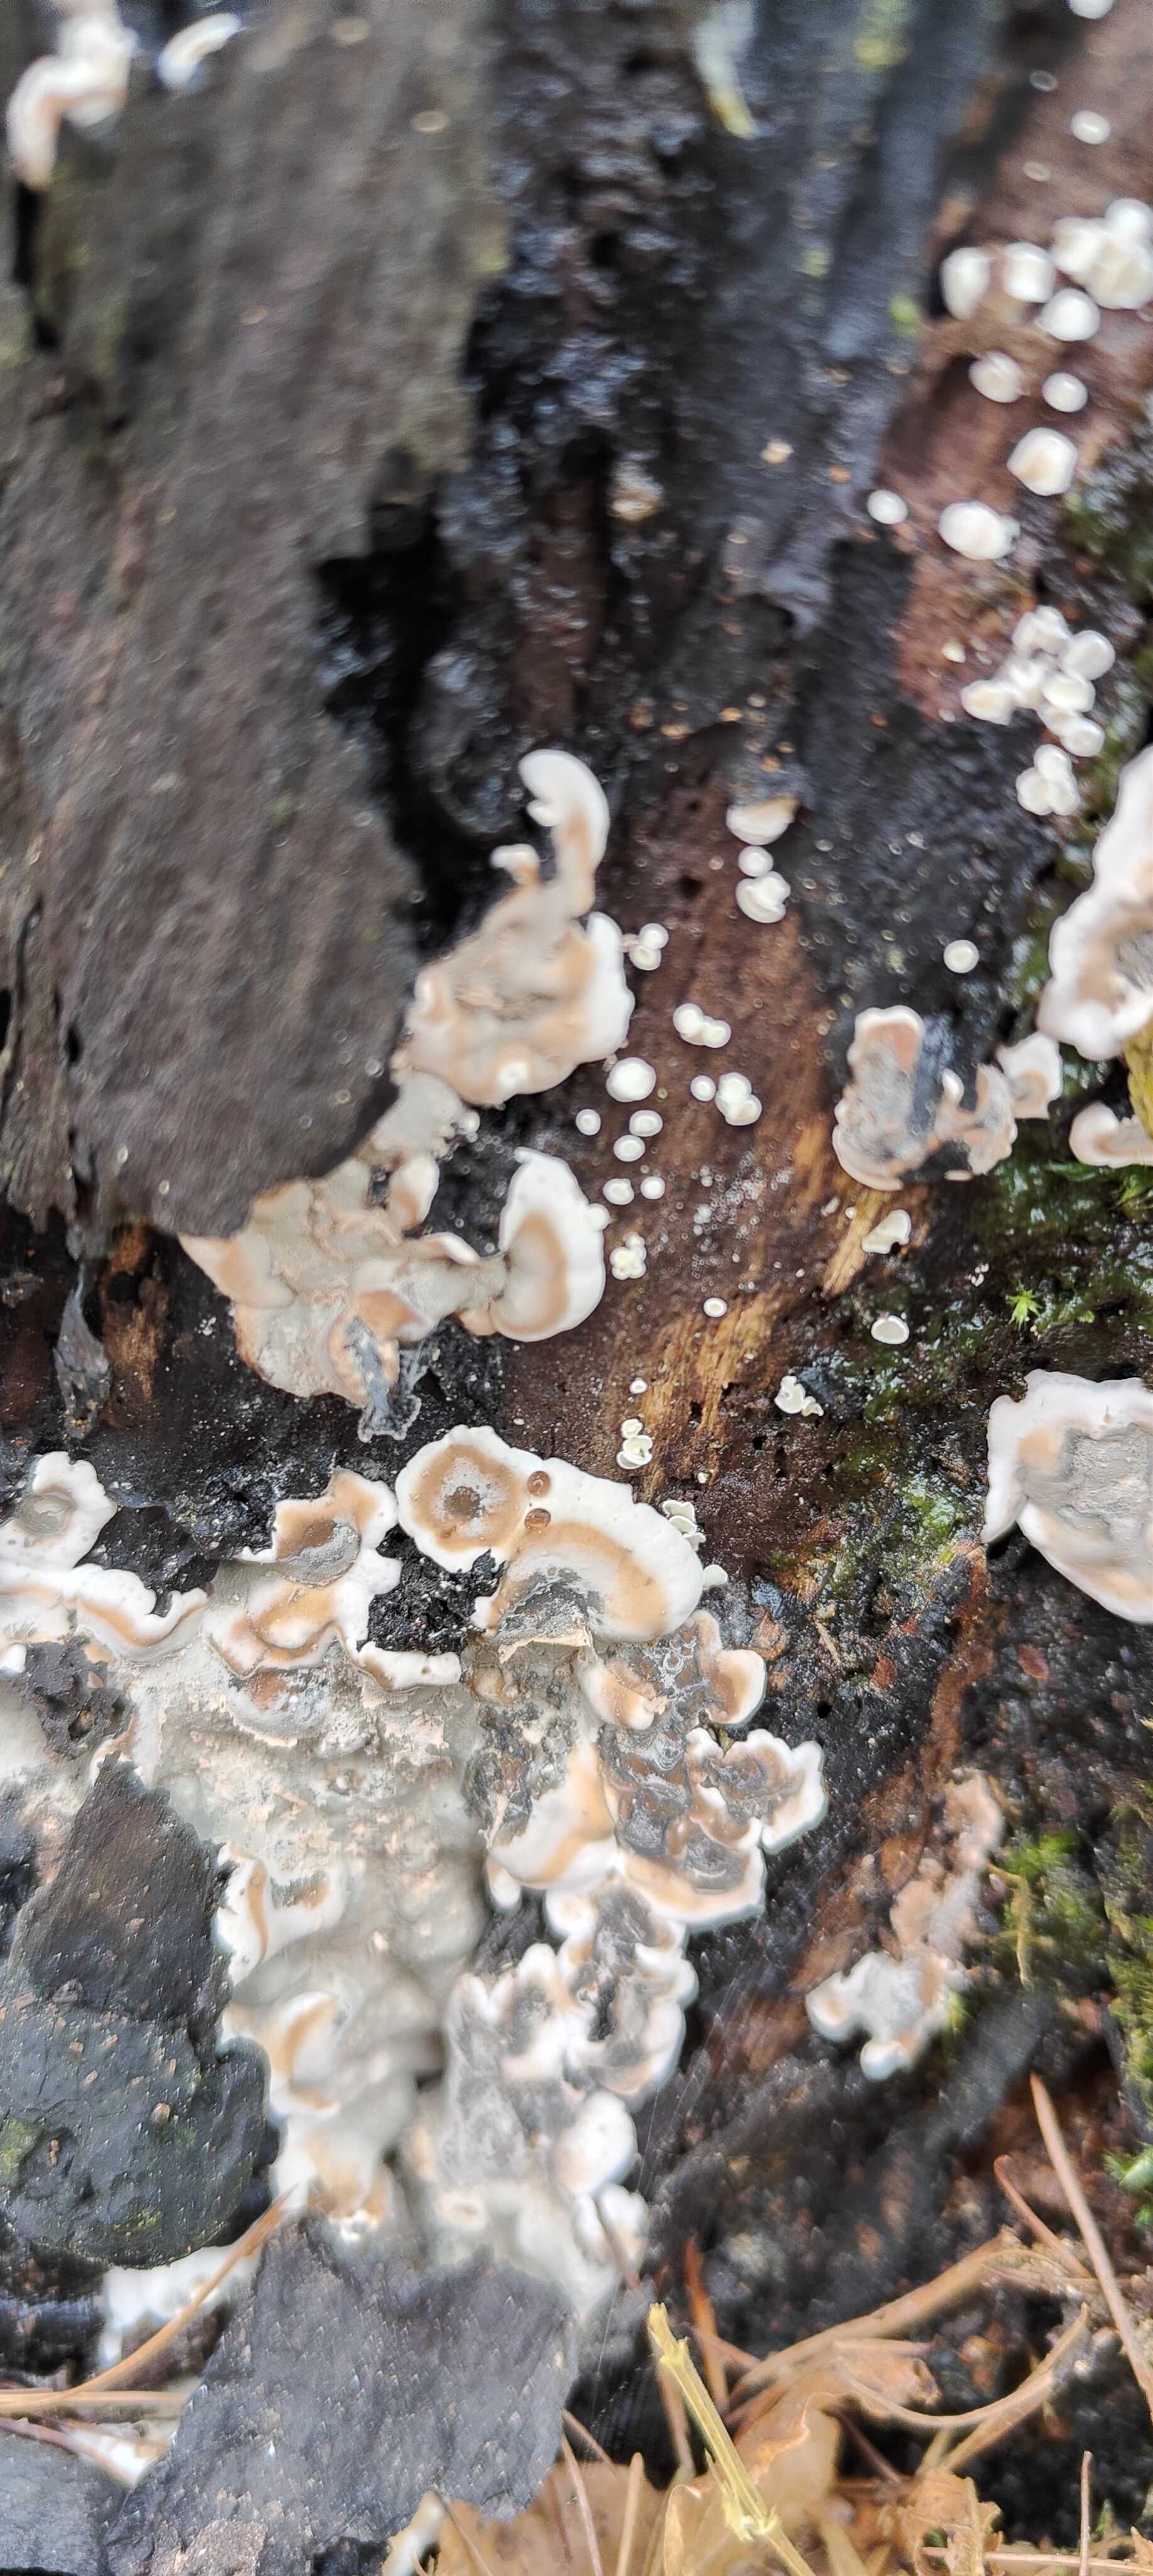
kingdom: Fungi
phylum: Ascomycota
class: Sordariomycetes
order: Xylariales
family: Xylariaceae
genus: Kretzschmaria
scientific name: Kretzschmaria deusta
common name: stor kulsvamp
